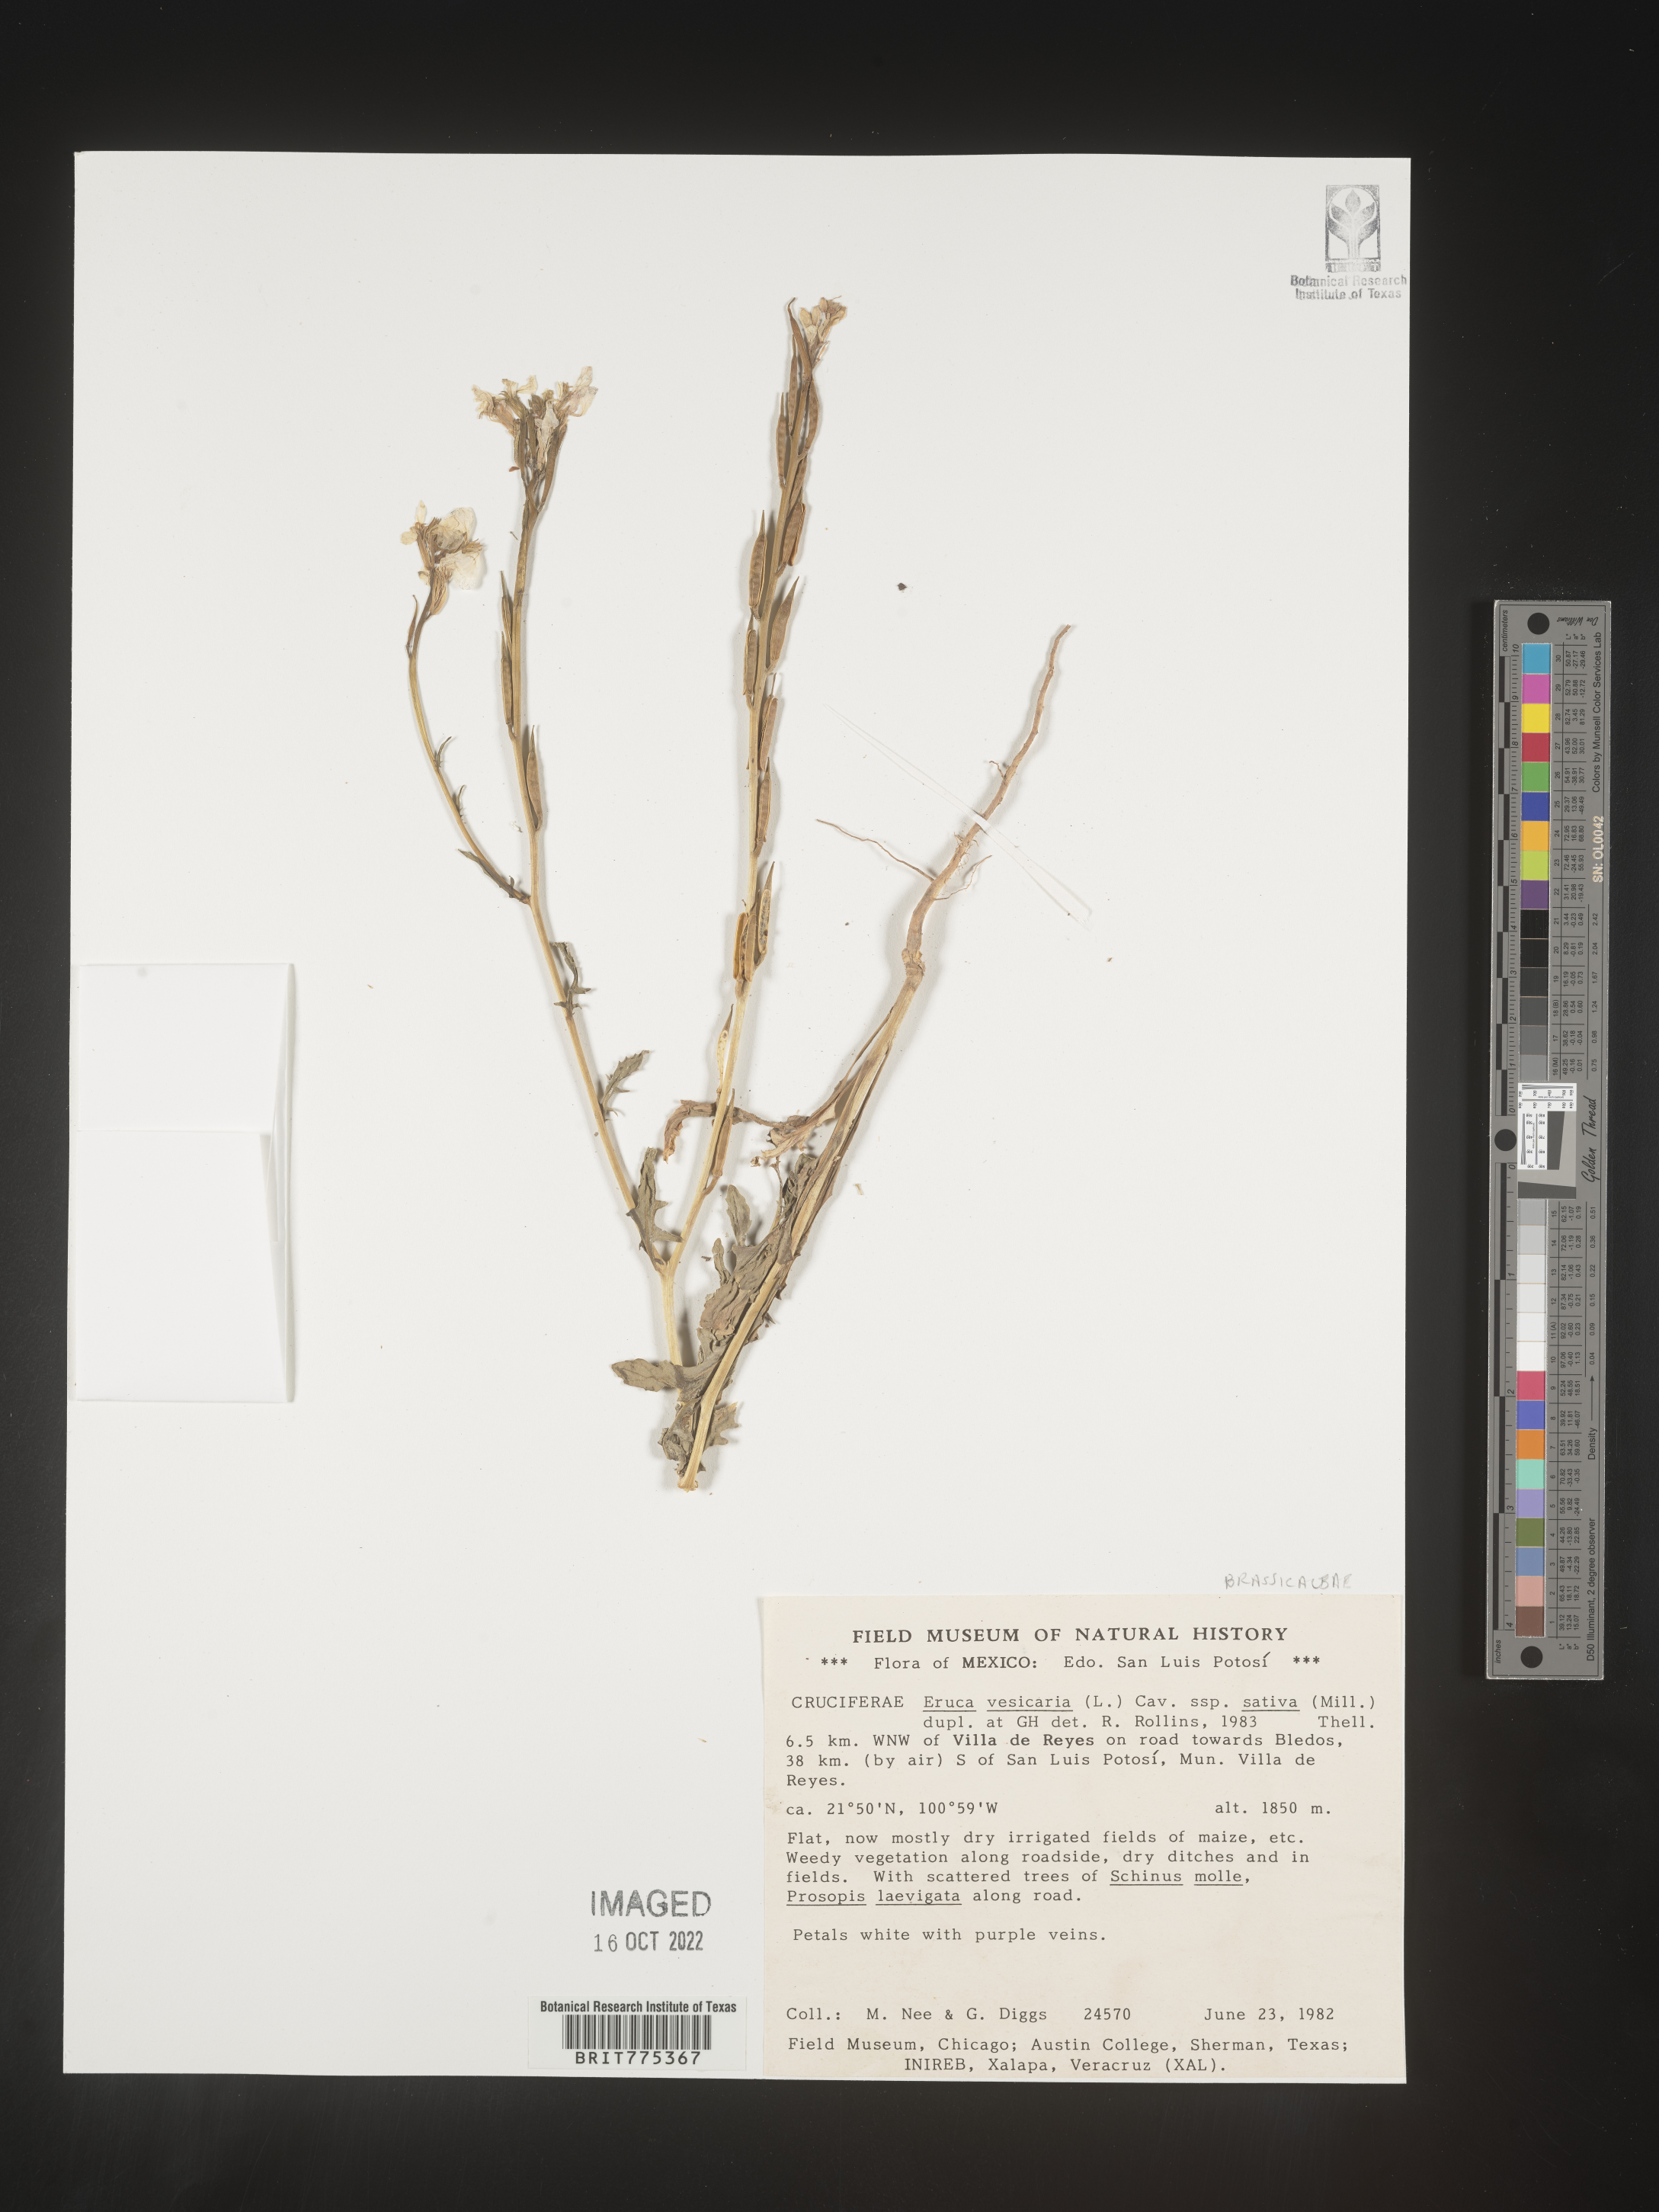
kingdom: Plantae
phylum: Tracheophyta
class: Magnoliopsida
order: Brassicales
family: Brassicaceae
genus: Eruca
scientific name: Eruca
